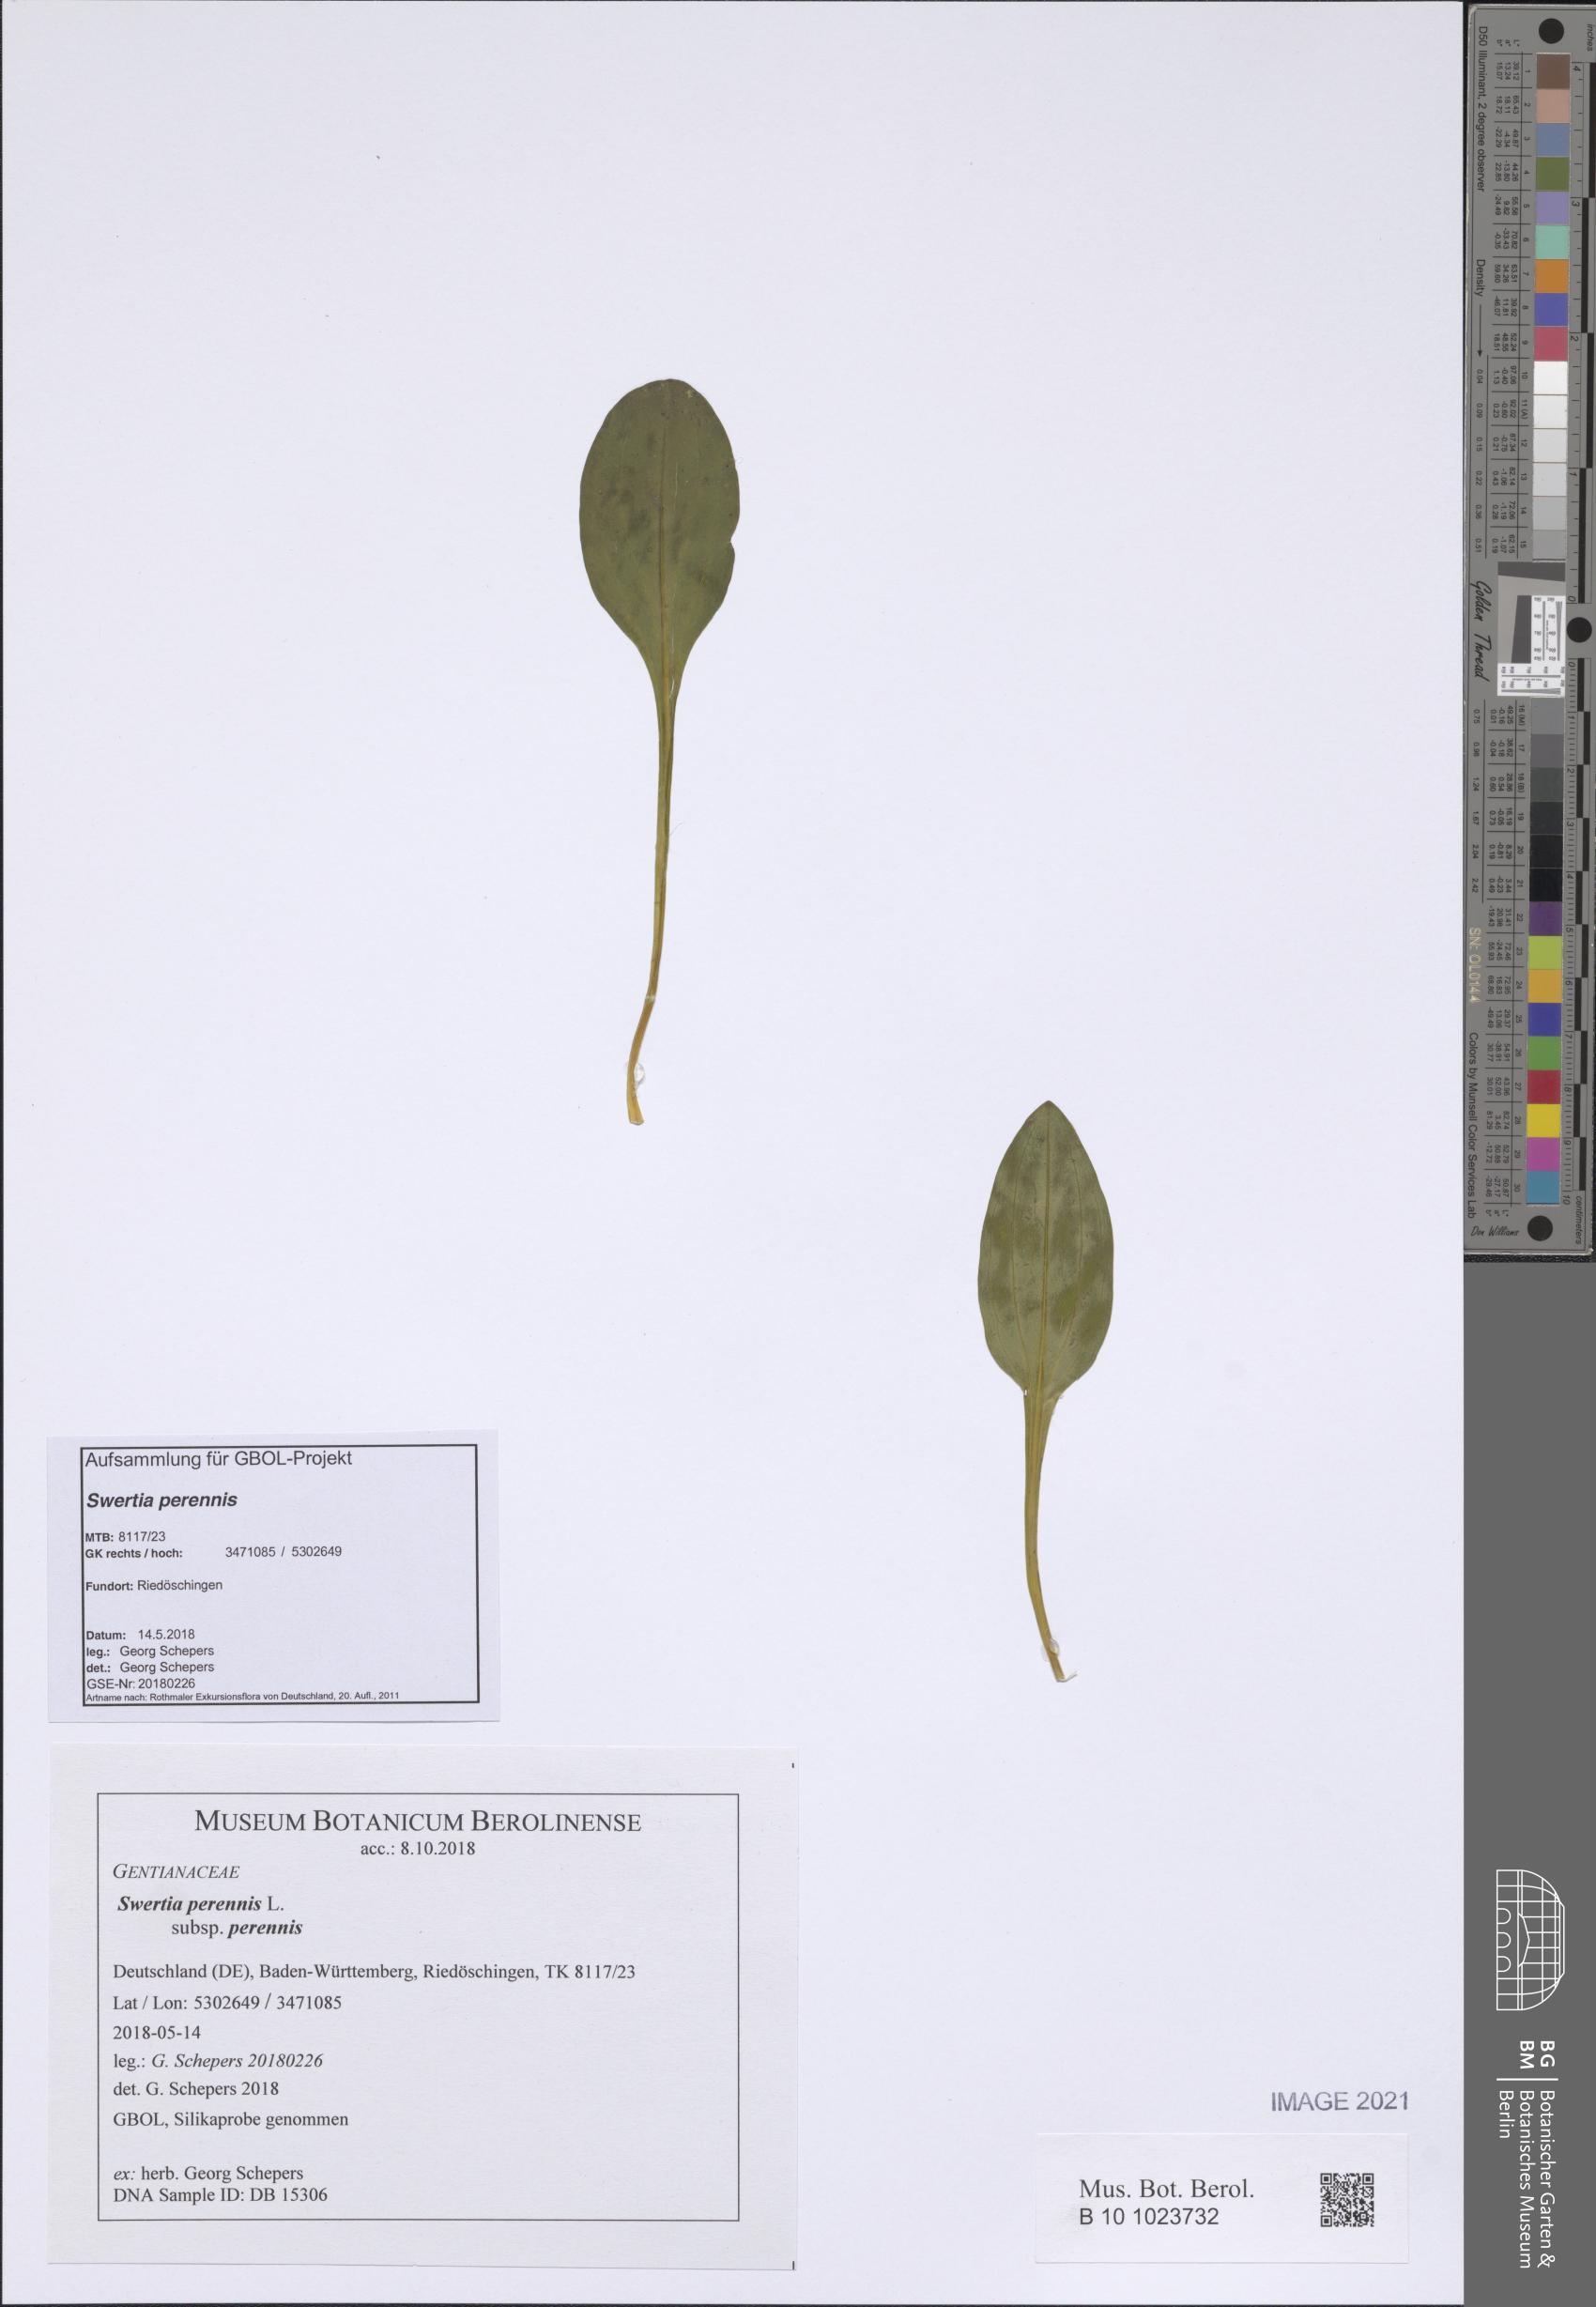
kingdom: Plantae
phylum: Tracheophyta
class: Magnoliopsida
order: Gentianales
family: Gentianaceae
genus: Swertia
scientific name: Swertia perennis
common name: Alpine bog swertia
